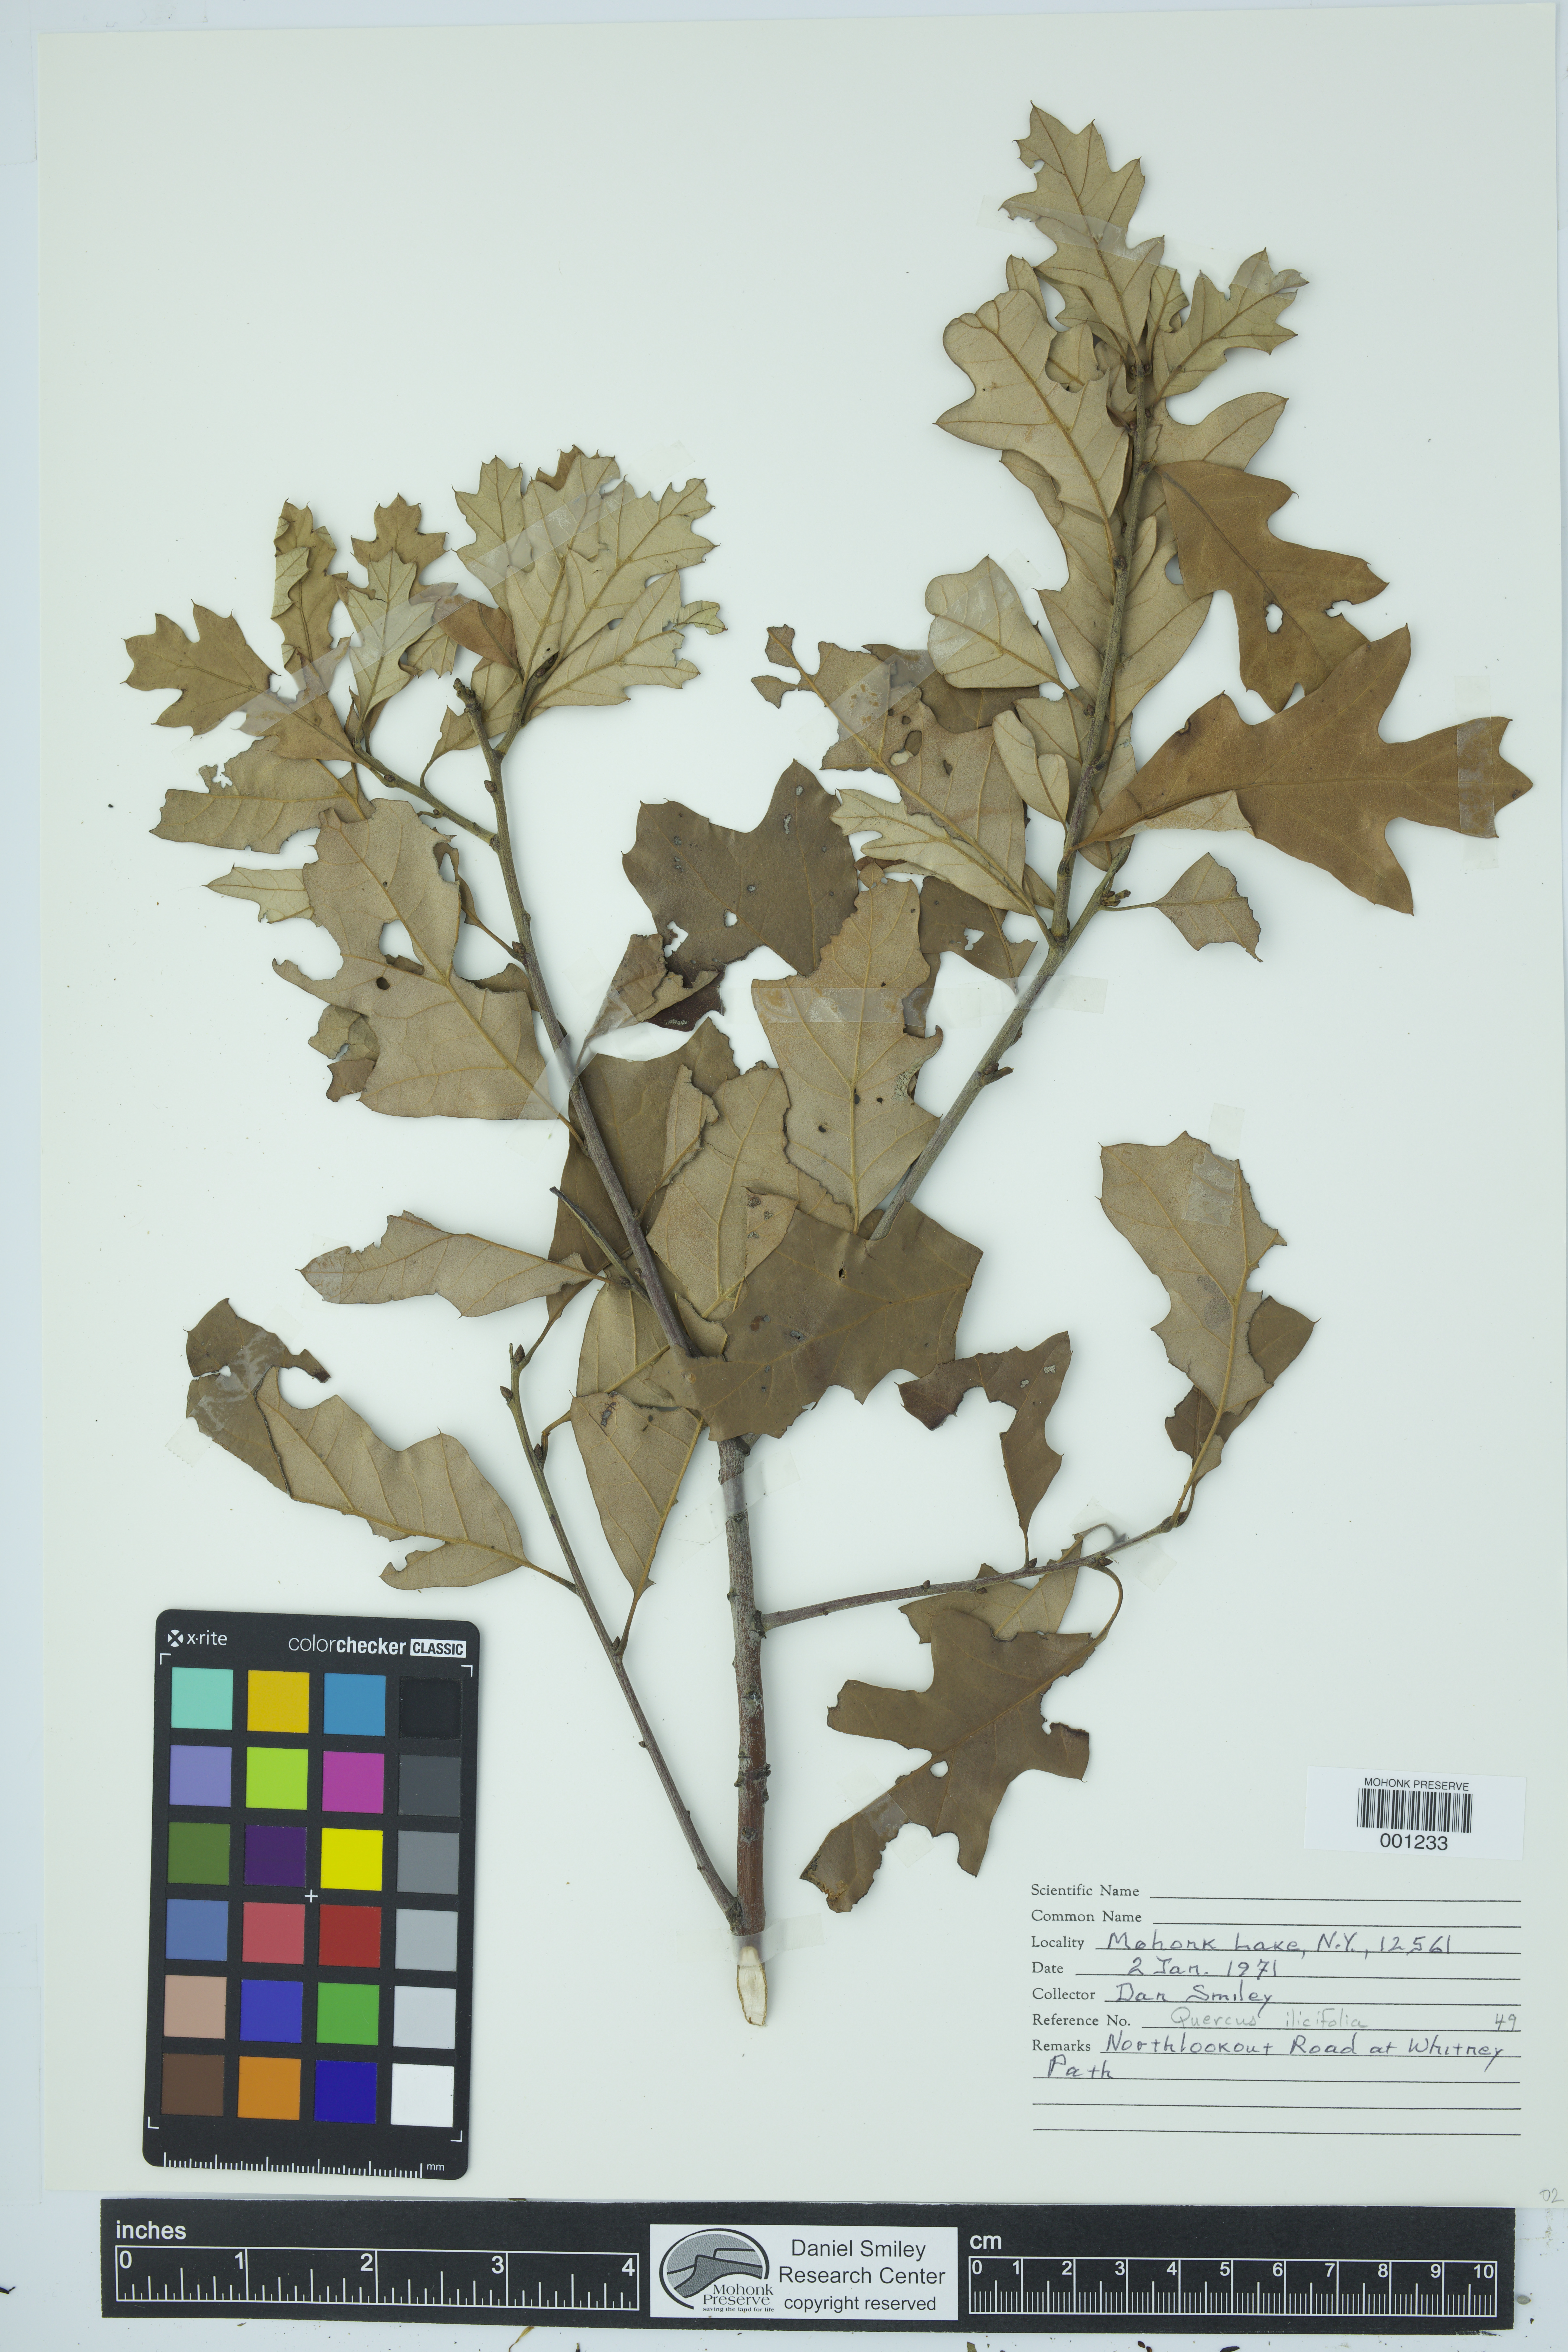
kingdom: Plantae
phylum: Tracheophyta
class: Magnoliopsida
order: Fagales
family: Fagaceae
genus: Quercus
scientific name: Quercus ilicifolia
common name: Bear oak
